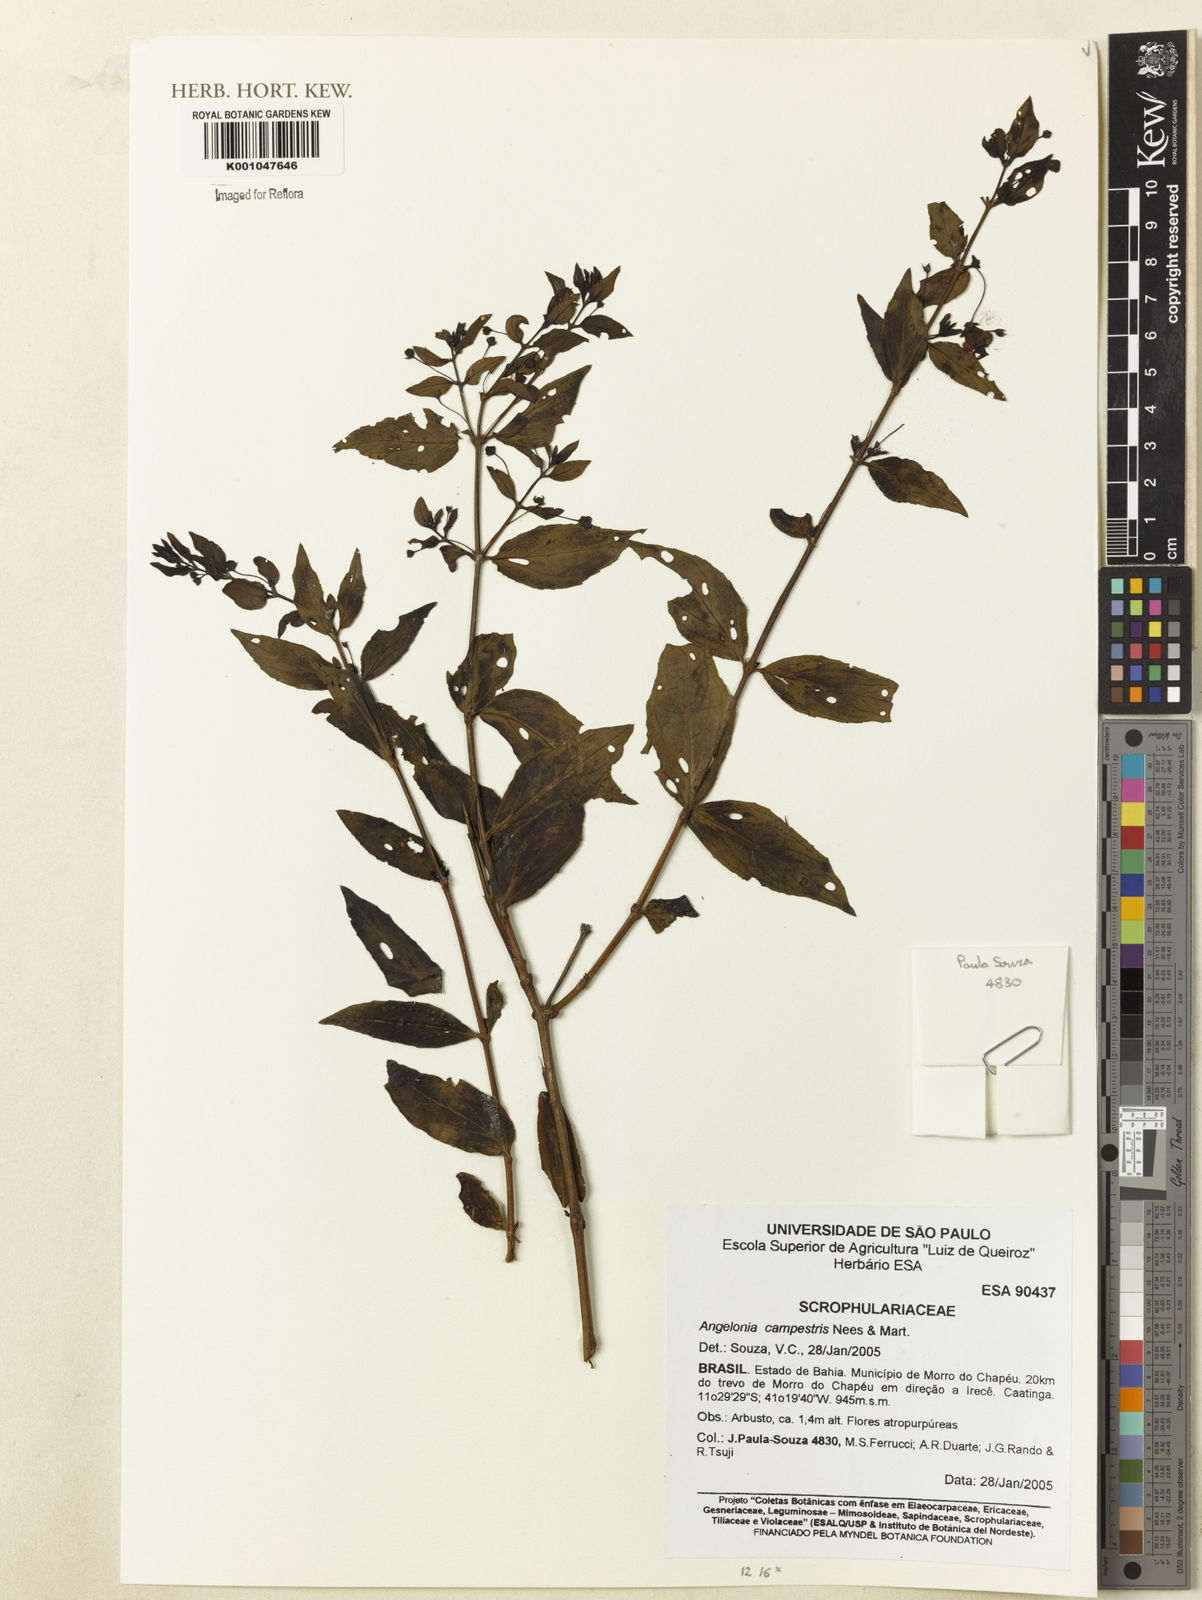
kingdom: Plantae
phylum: Tracheophyta
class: Magnoliopsida
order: Lamiales
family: Plantaginaceae
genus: Angelonia
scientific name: Angelonia campestris
